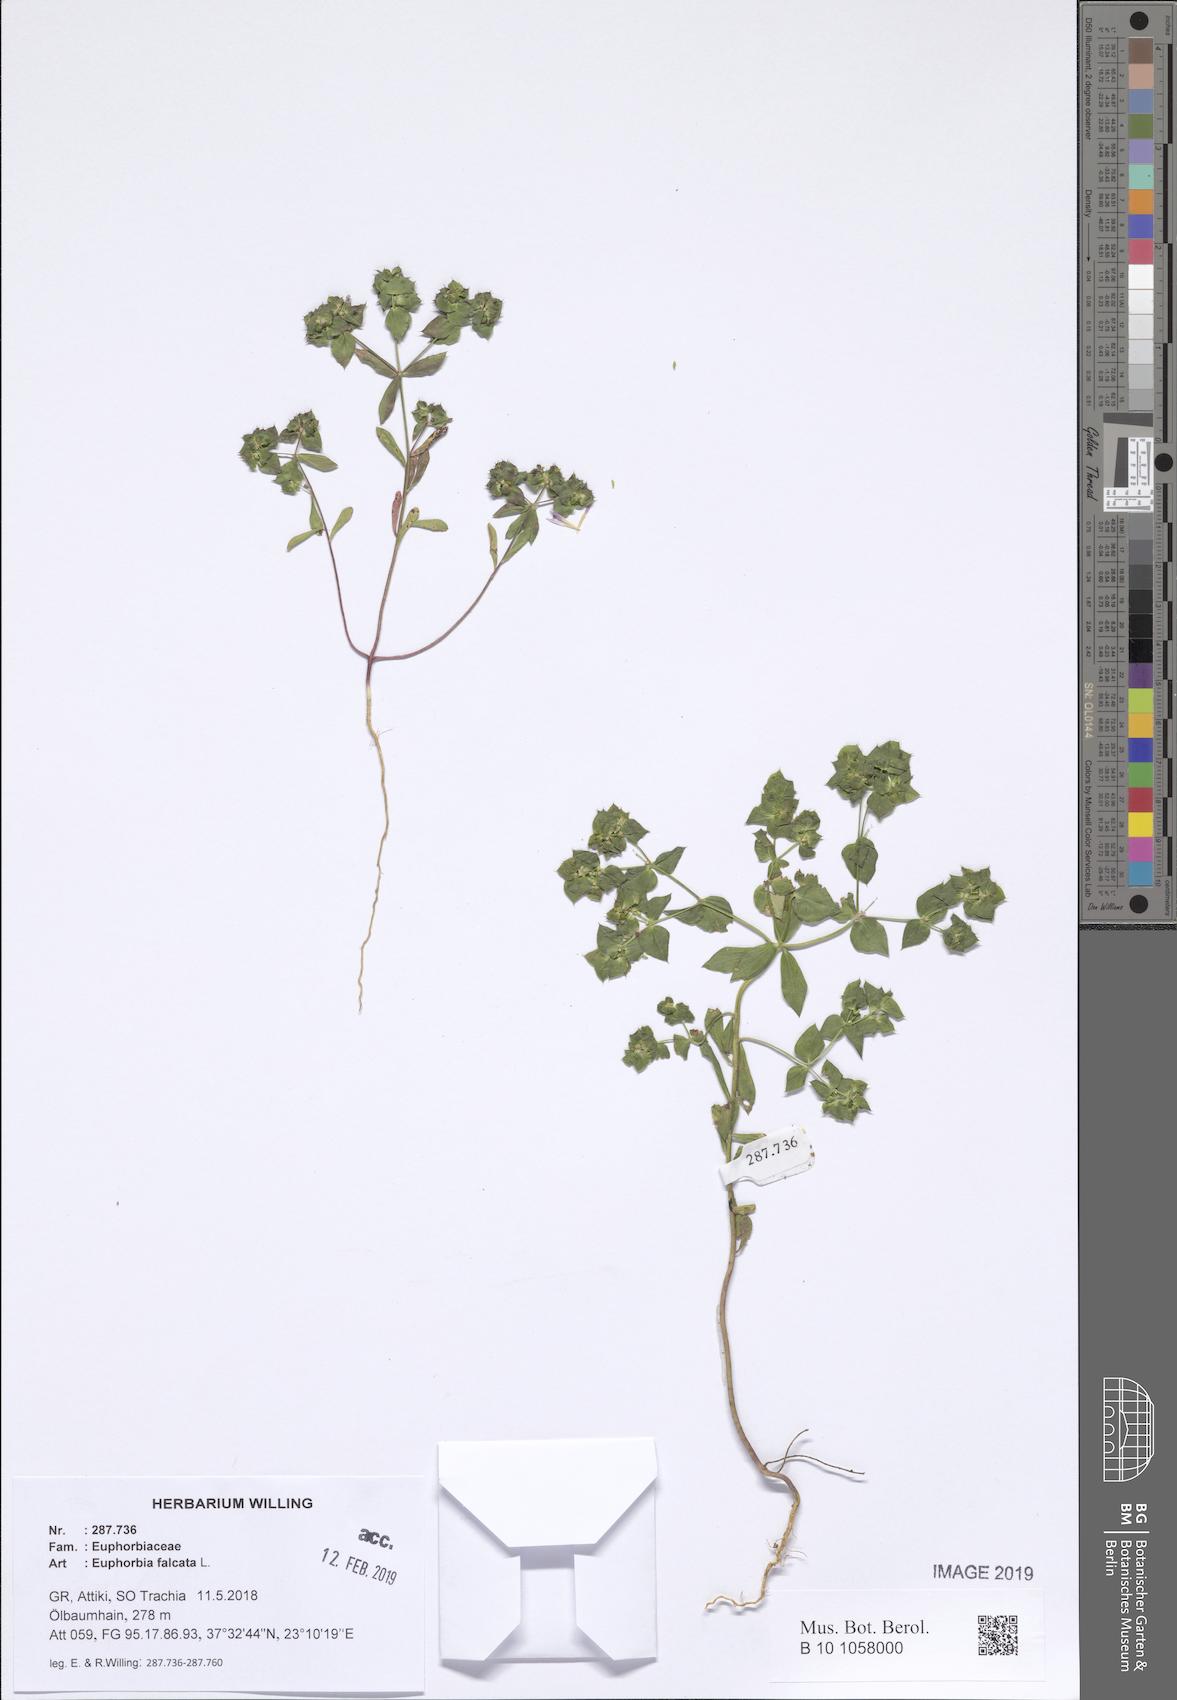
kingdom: Plantae
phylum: Tracheophyta
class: Magnoliopsida
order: Malpighiales
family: Euphorbiaceae
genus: Euphorbia
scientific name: Euphorbia falcata
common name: Sickle spurge
